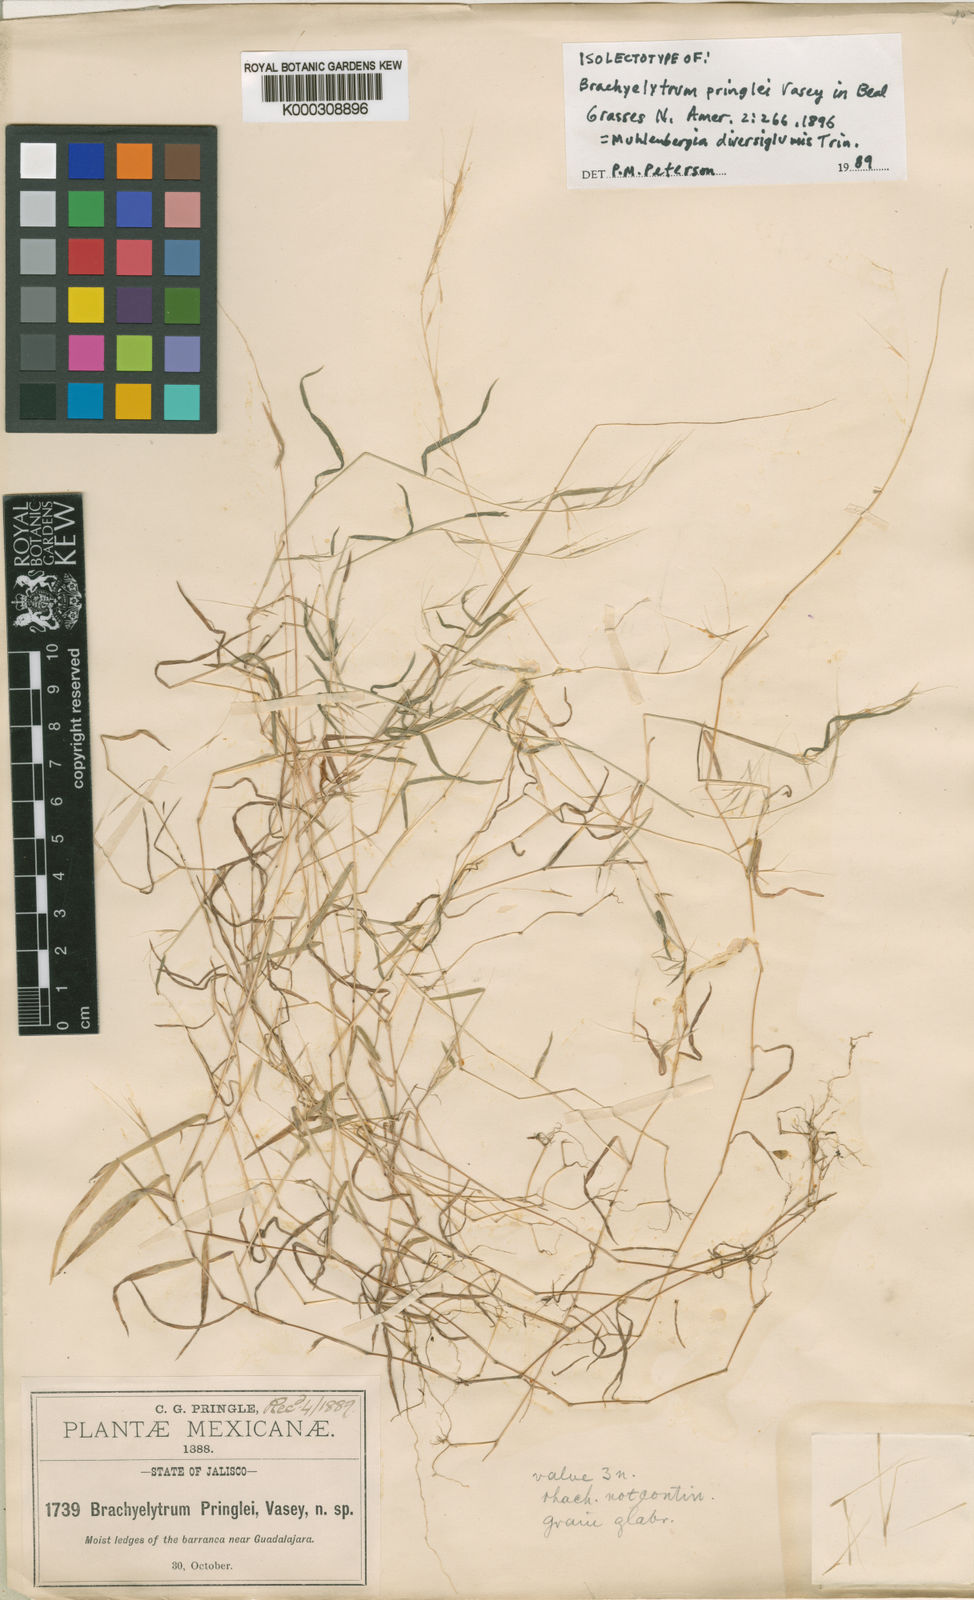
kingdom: Plantae
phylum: Tracheophyta
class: Liliopsida
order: Poales
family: Poaceae
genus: Muhlenbergia
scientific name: Muhlenbergia diversiglumis
